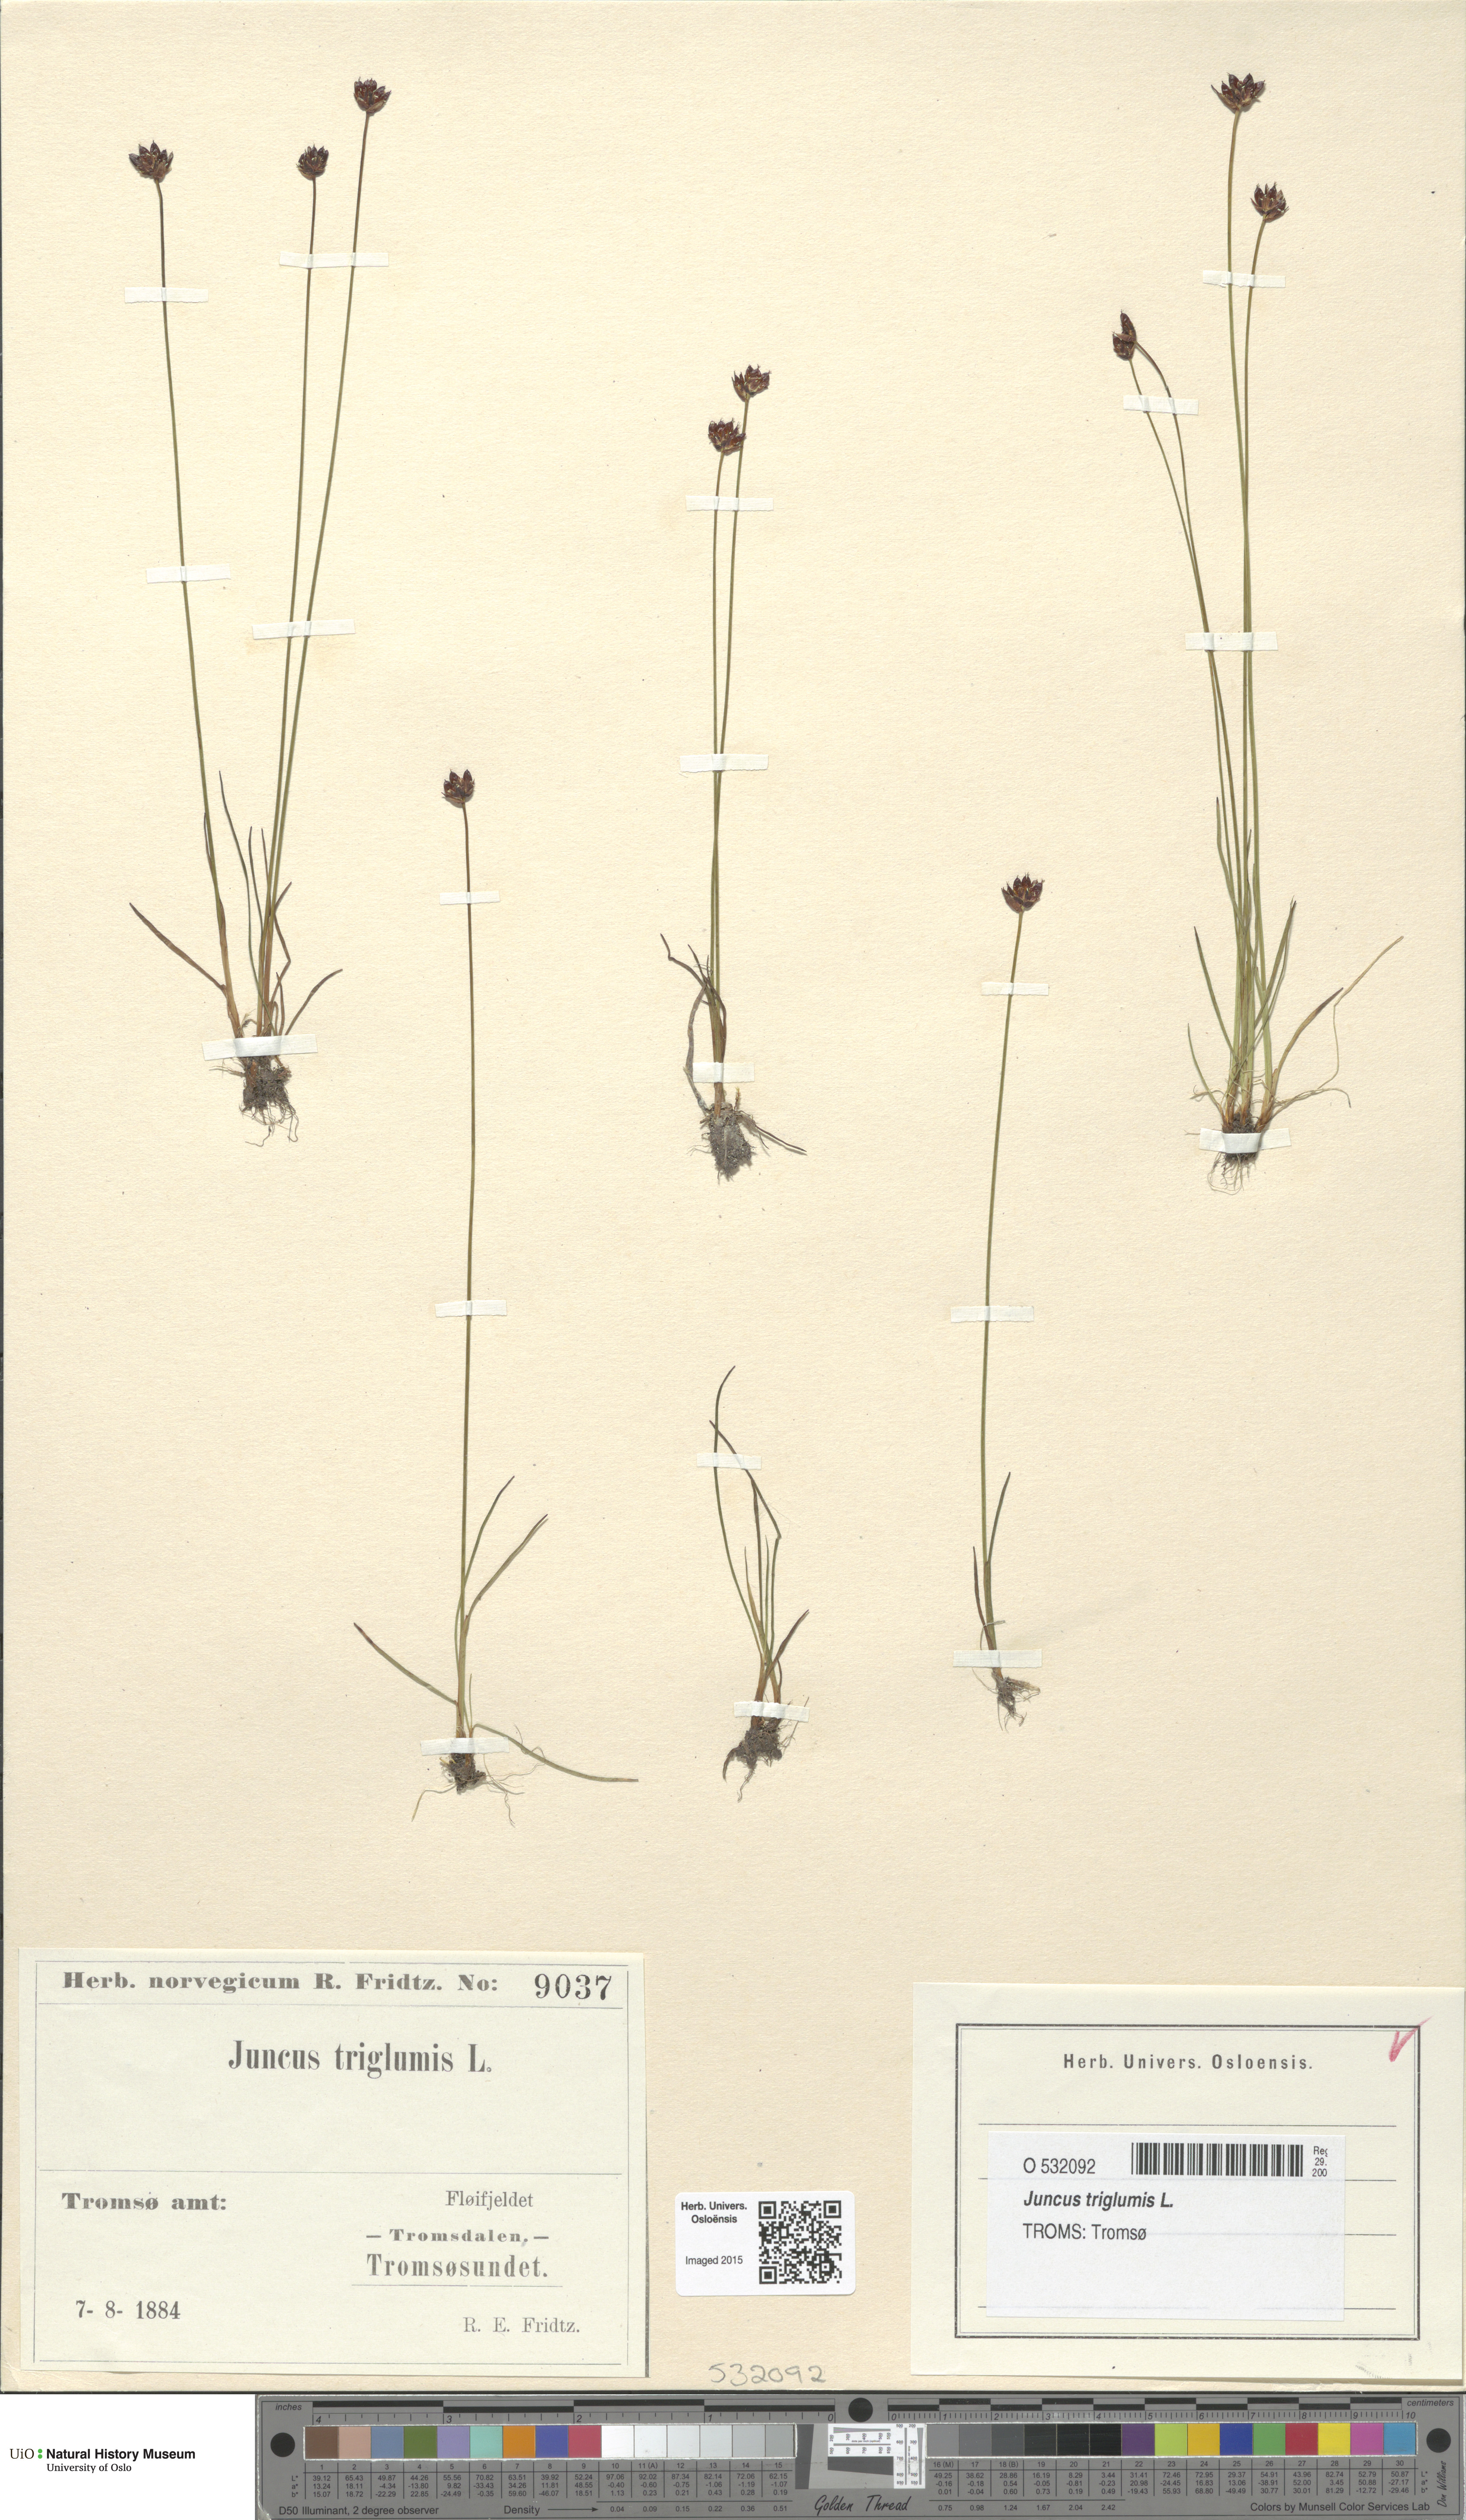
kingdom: Plantae
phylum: Tracheophyta
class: Liliopsida
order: Poales
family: Juncaceae
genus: Juncus
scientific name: Juncus triglumis
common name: Three-flowered rush
